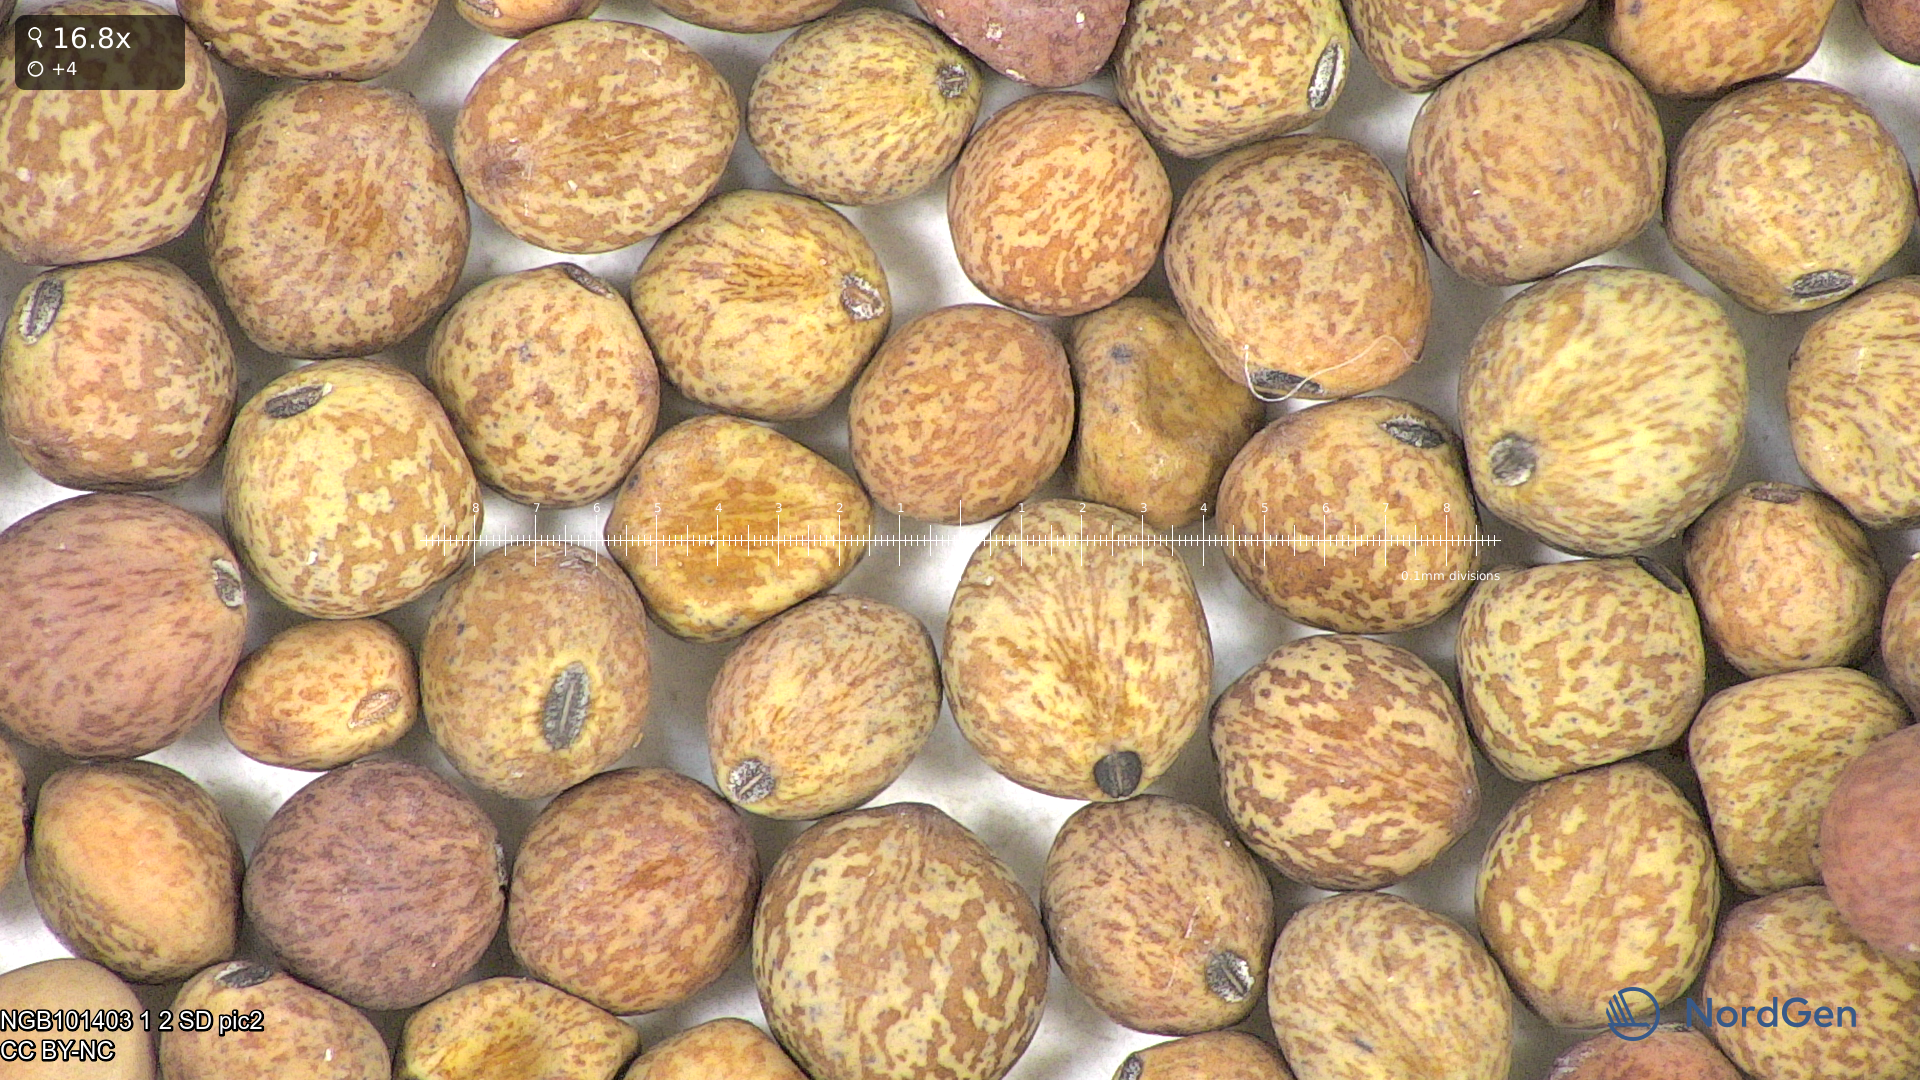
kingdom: Plantae
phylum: Tracheophyta
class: Magnoliopsida
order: Fabales
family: Fabaceae
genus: Lathyrus
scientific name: Lathyrus oleraceus
